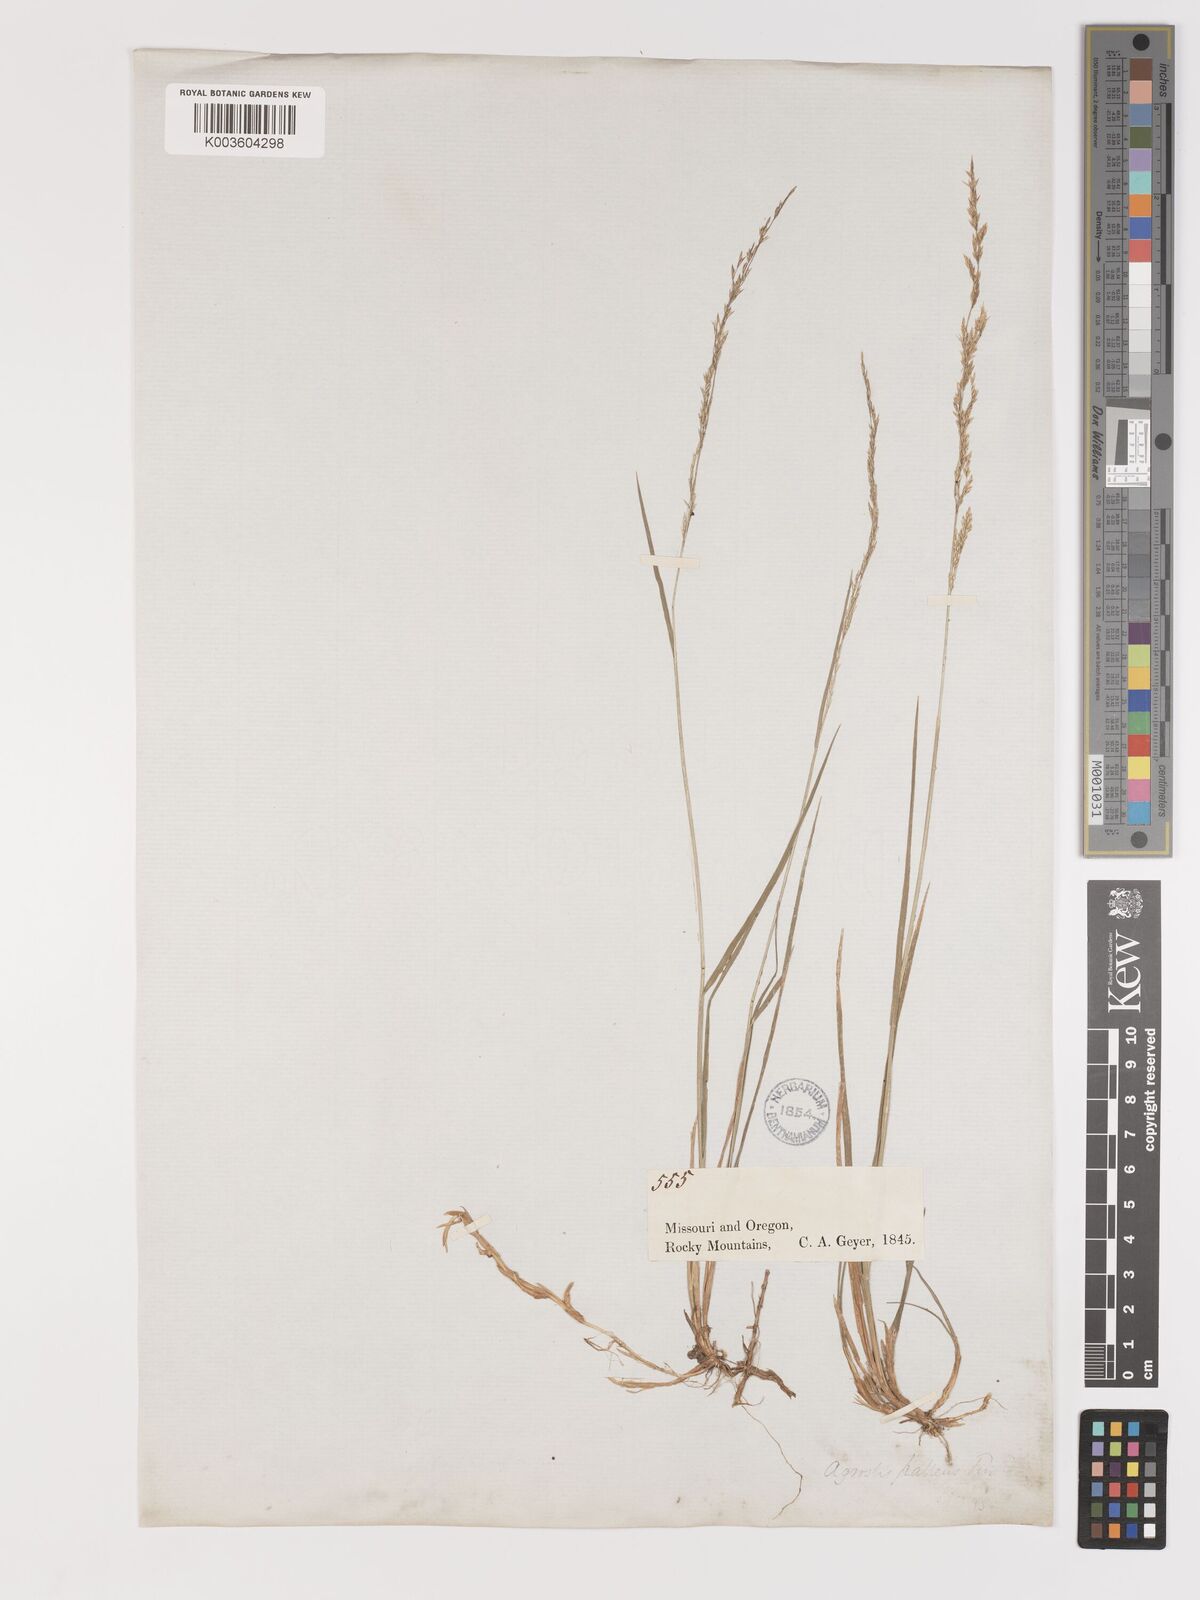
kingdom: Plantae
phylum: Tracheophyta
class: Liliopsida
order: Poales
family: Poaceae
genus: Agrostis
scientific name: Agrostis exarata
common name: Spike bent
